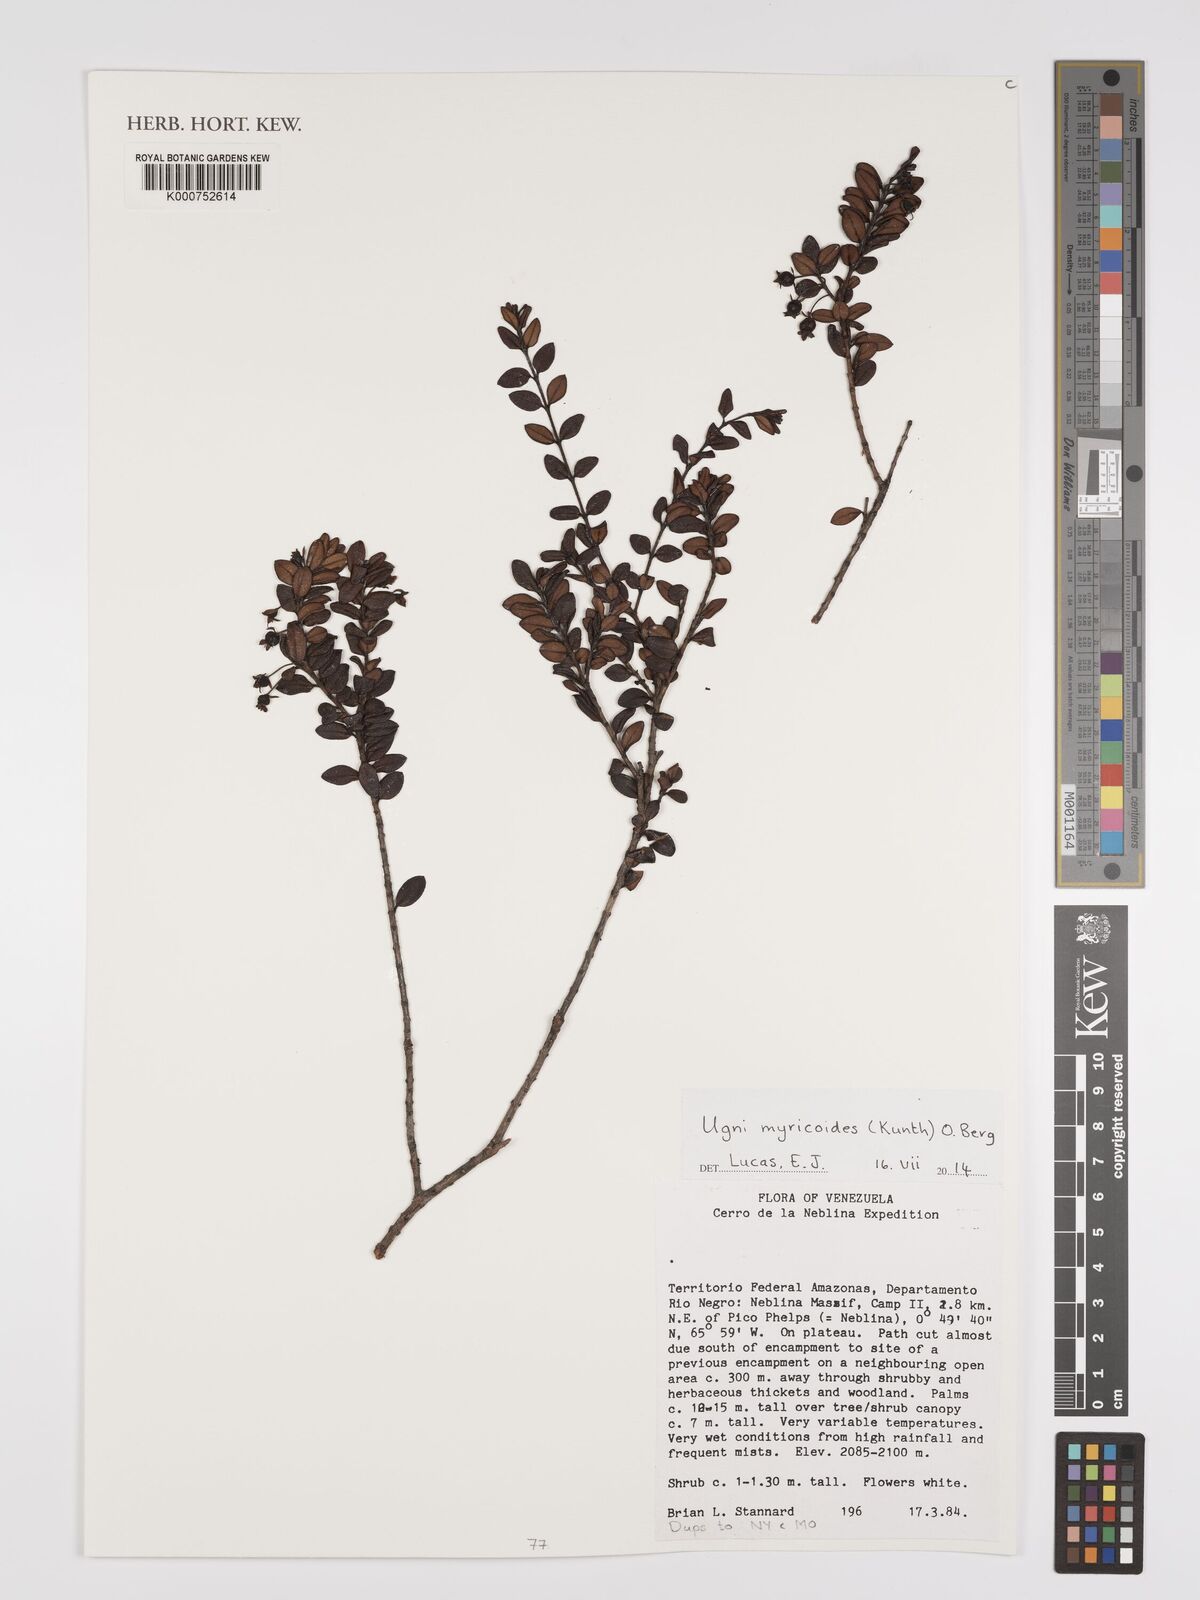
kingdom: Plantae
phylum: Tracheophyta
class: Magnoliopsida
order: Myrtales
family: Myrtaceae
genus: Ugni
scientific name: Ugni myricoides
